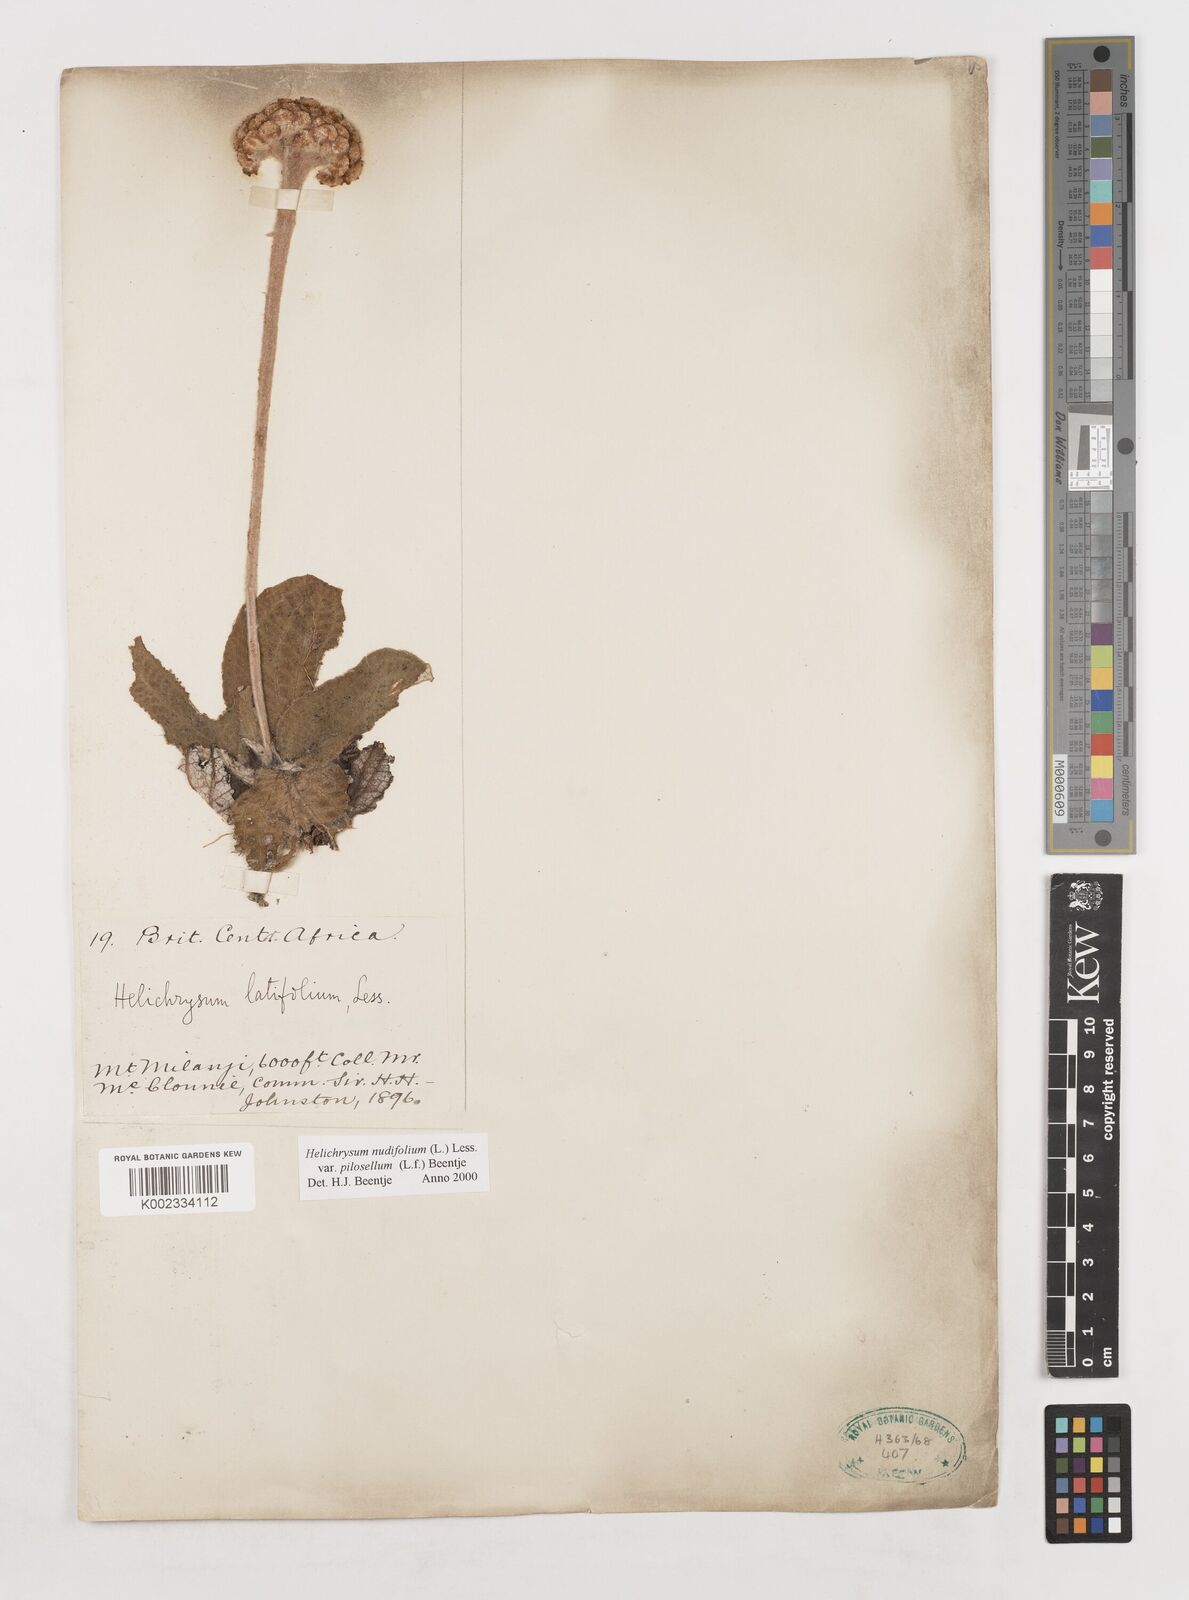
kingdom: Plantae
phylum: Tracheophyta
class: Magnoliopsida
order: Asterales
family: Asteraceae
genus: Helichrysum
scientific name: Helichrysum nudifolium
